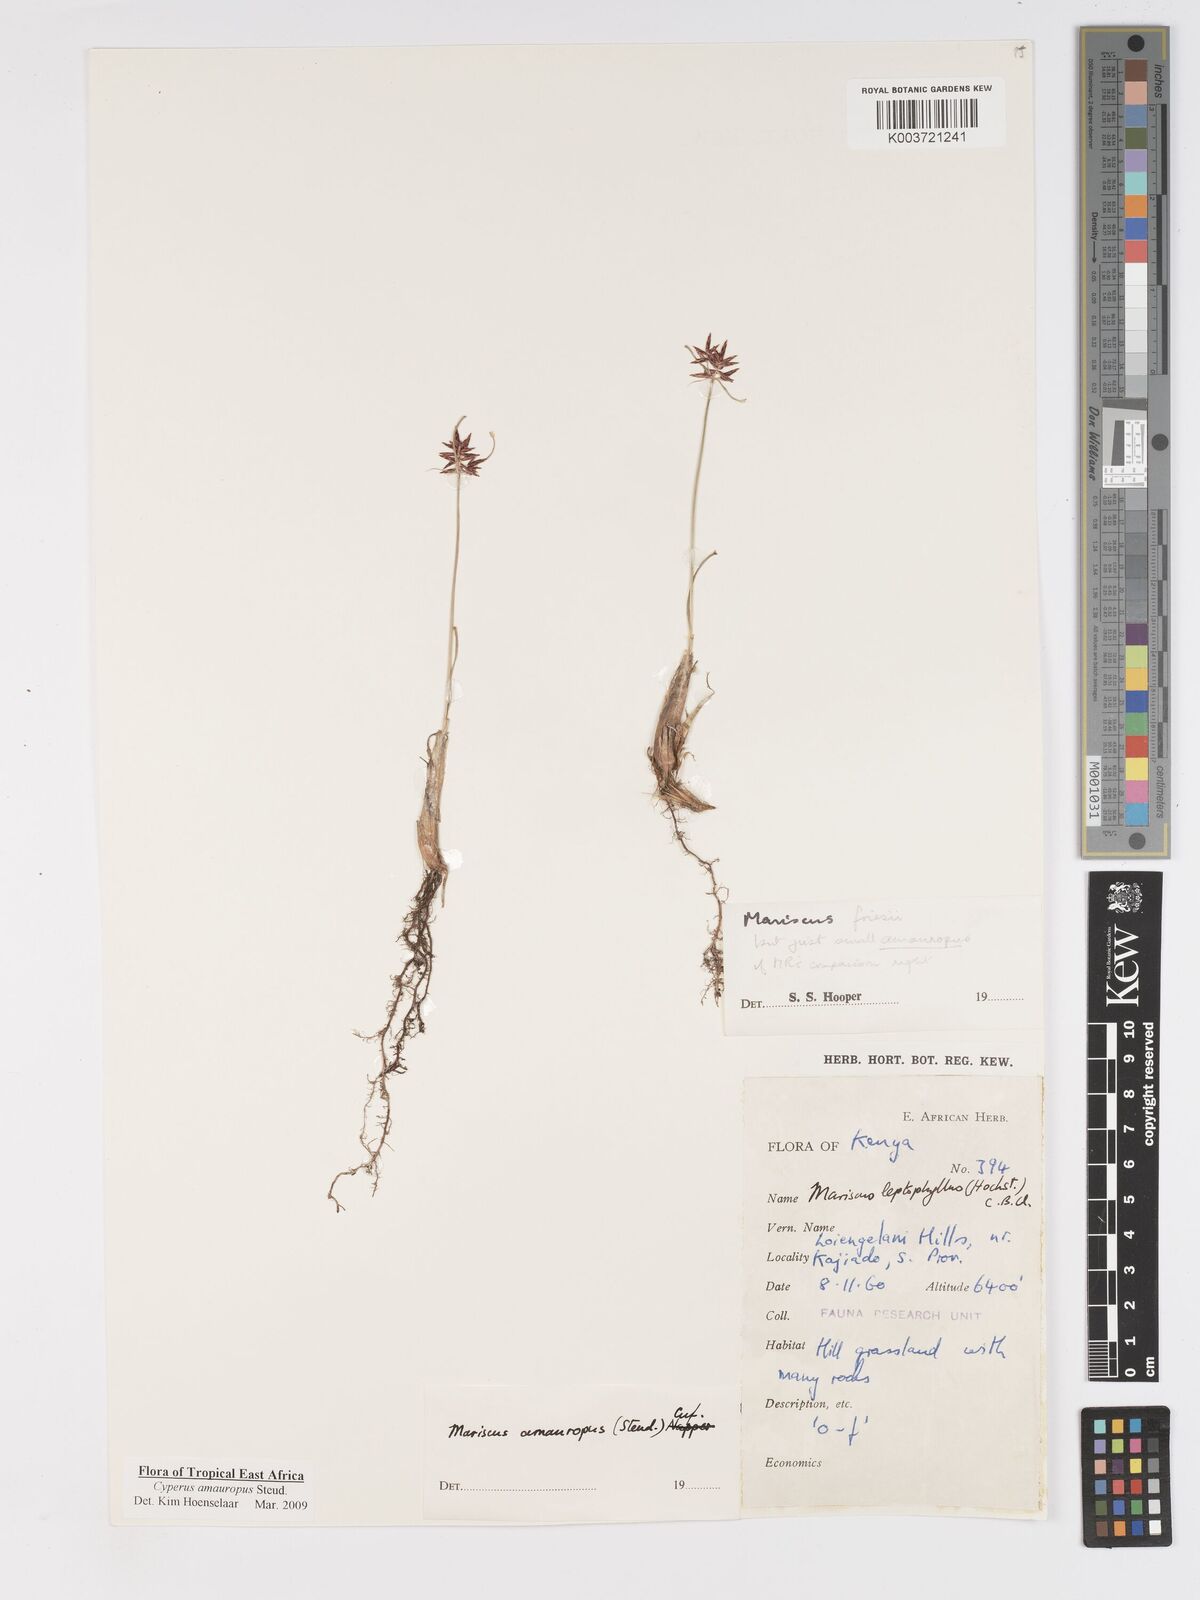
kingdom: Plantae
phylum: Tracheophyta
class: Liliopsida
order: Poales
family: Cyperaceae
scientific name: Cyperaceae
